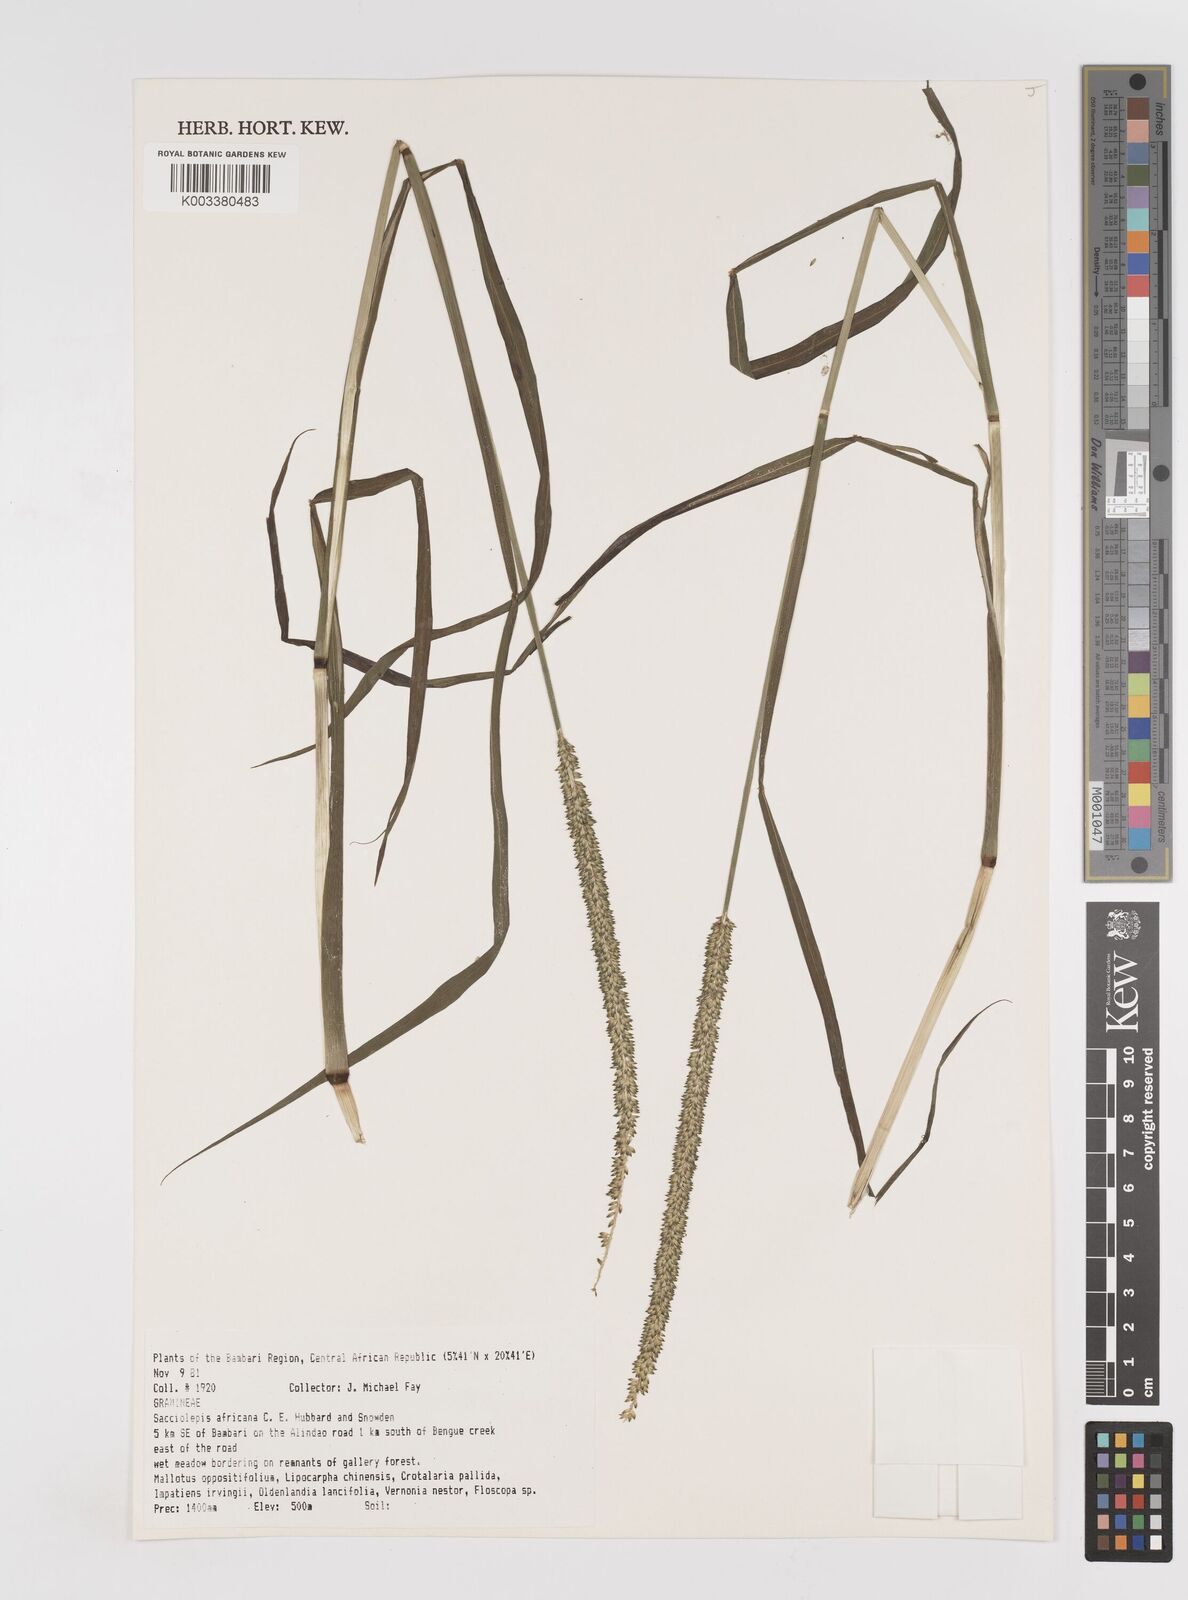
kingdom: Plantae
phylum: Tracheophyta
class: Liliopsida
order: Poales
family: Poaceae
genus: Sacciolepis
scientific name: Sacciolepis africana
